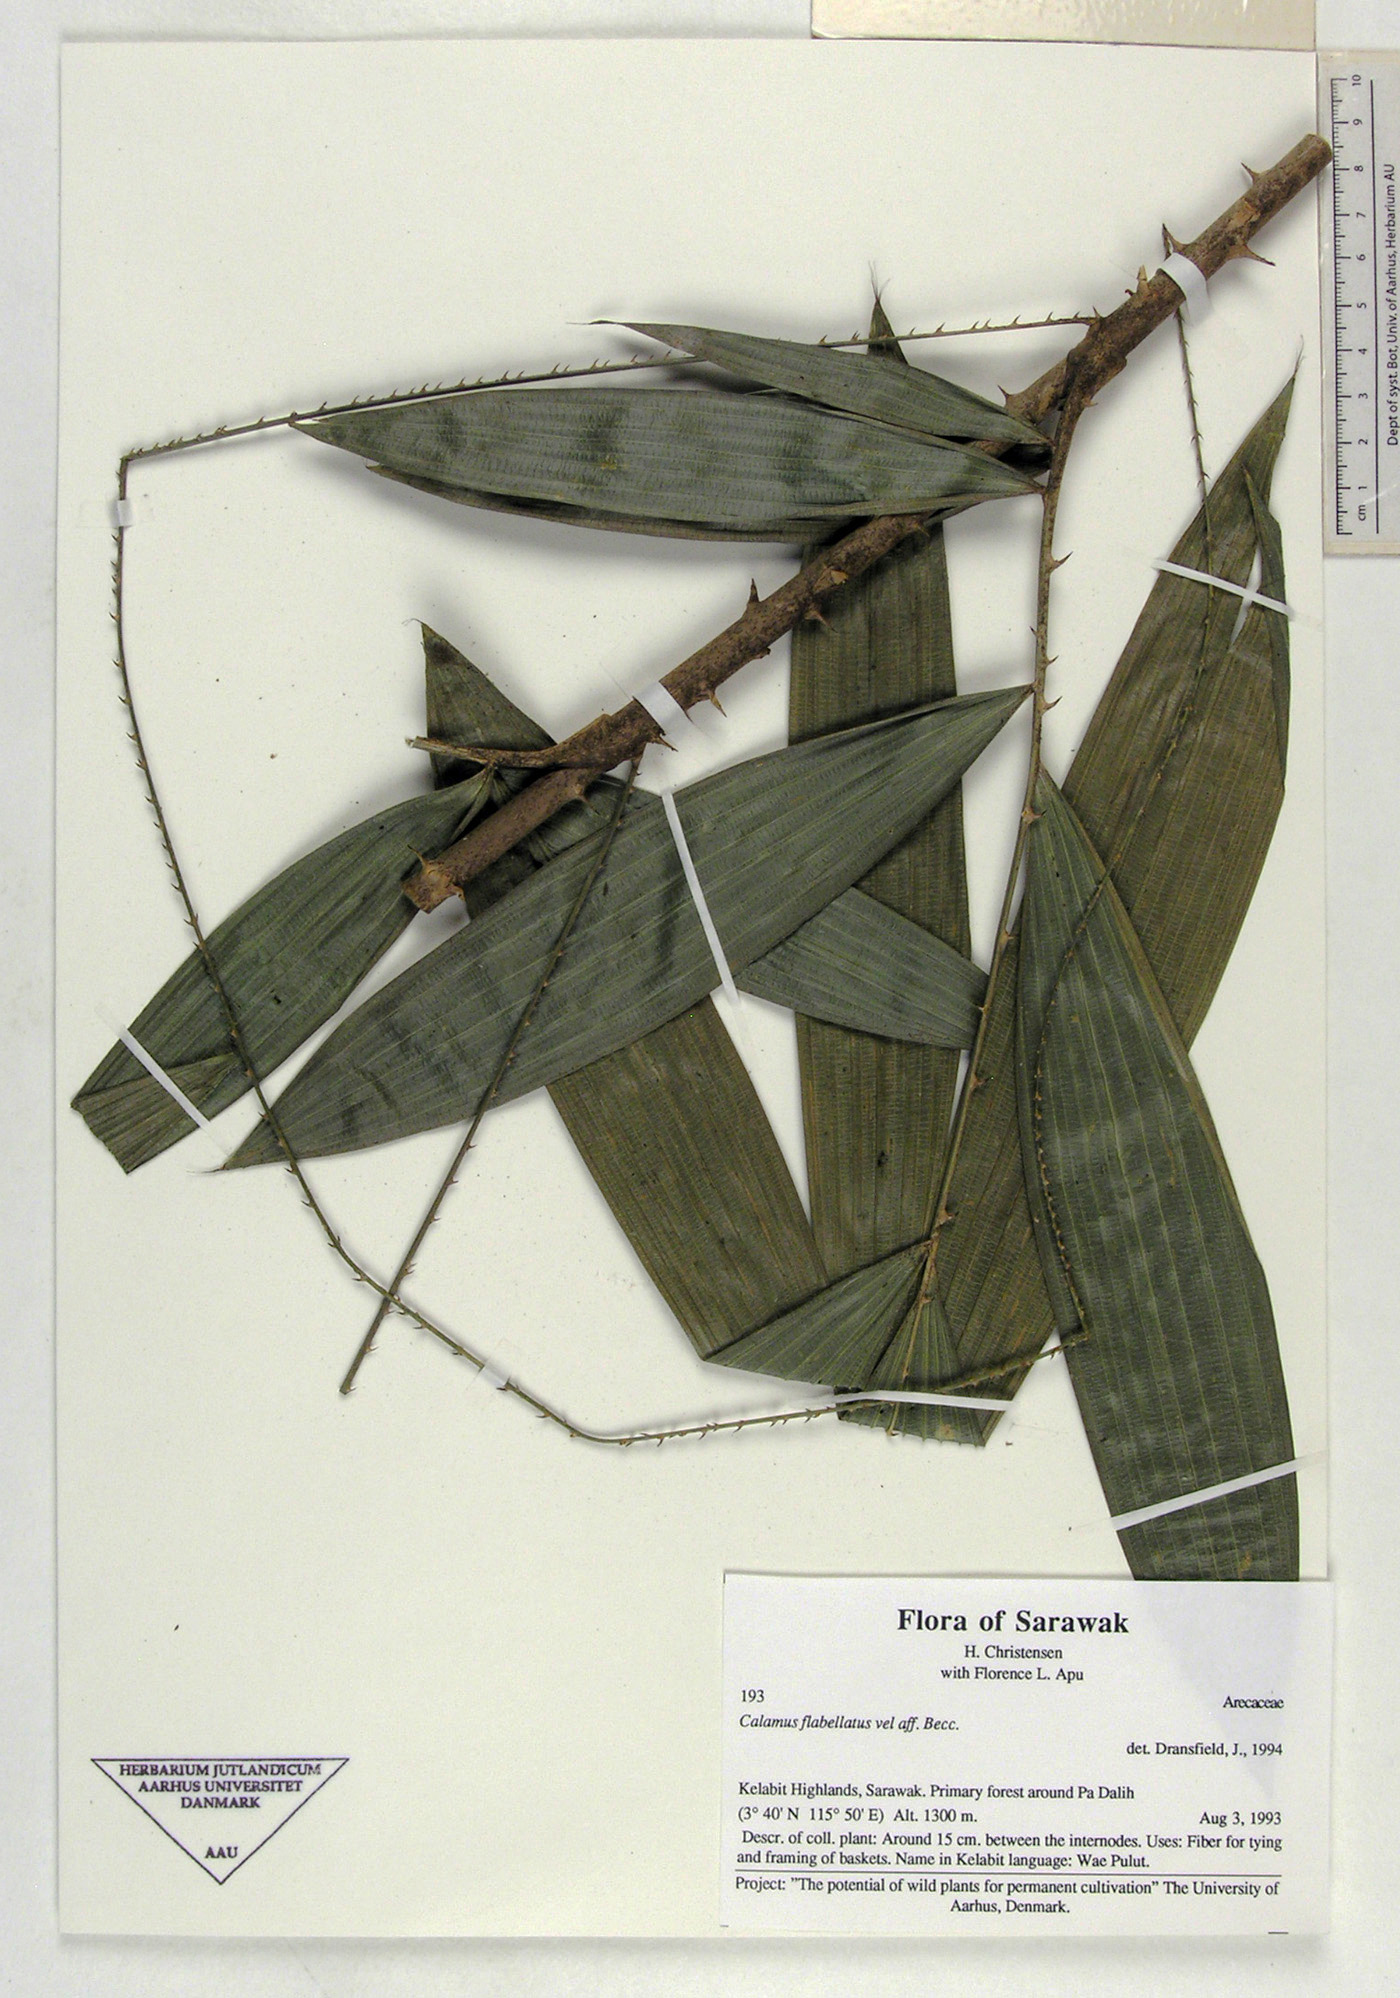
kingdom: Plantae
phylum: Tracheophyta
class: Liliopsida
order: Arecales
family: Arecaceae
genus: Calamus
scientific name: Calamus flabellatus
